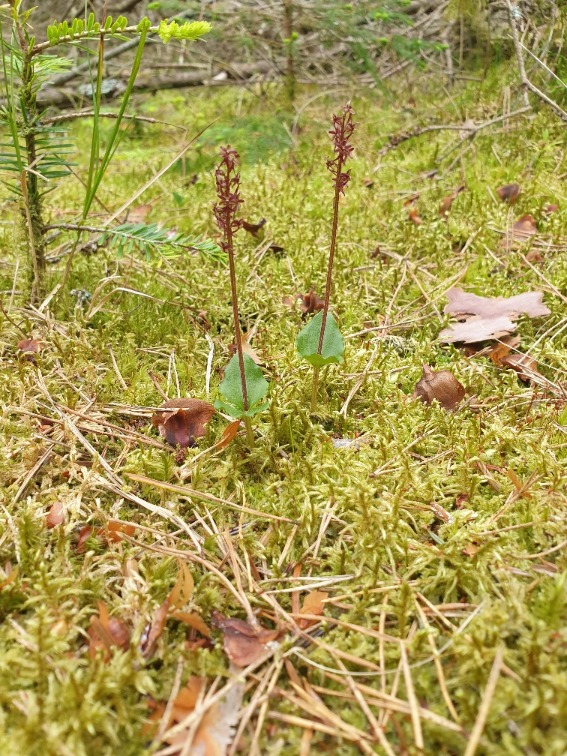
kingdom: Plantae
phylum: Tracheophyta
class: Liliopsida
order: Asparagales
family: Orchidaceae
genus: Neottia
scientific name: Neottia cordata
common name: Hjertebladet fliglæbe
